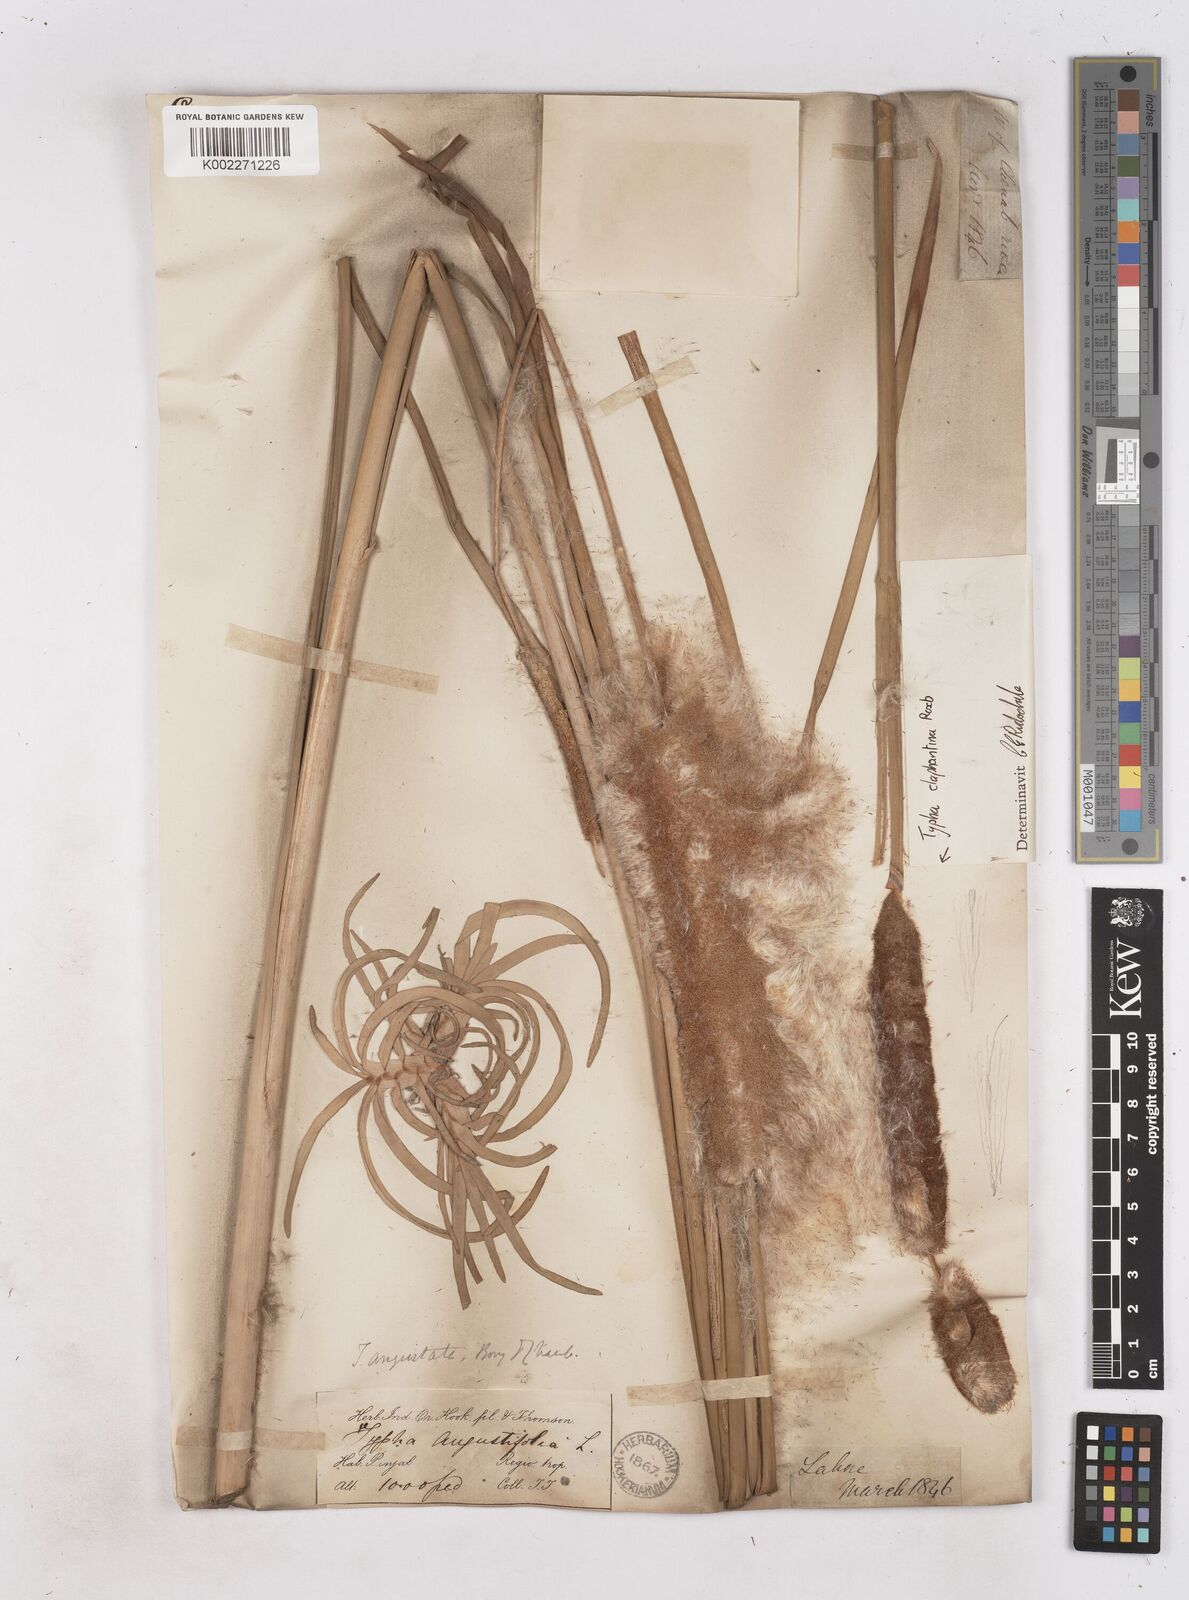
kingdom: Plantae
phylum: Tracheophyta
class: Liliopsida
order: Poales
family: Typhaceae
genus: Typha
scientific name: Typha elephantina
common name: Indian reed-grass
